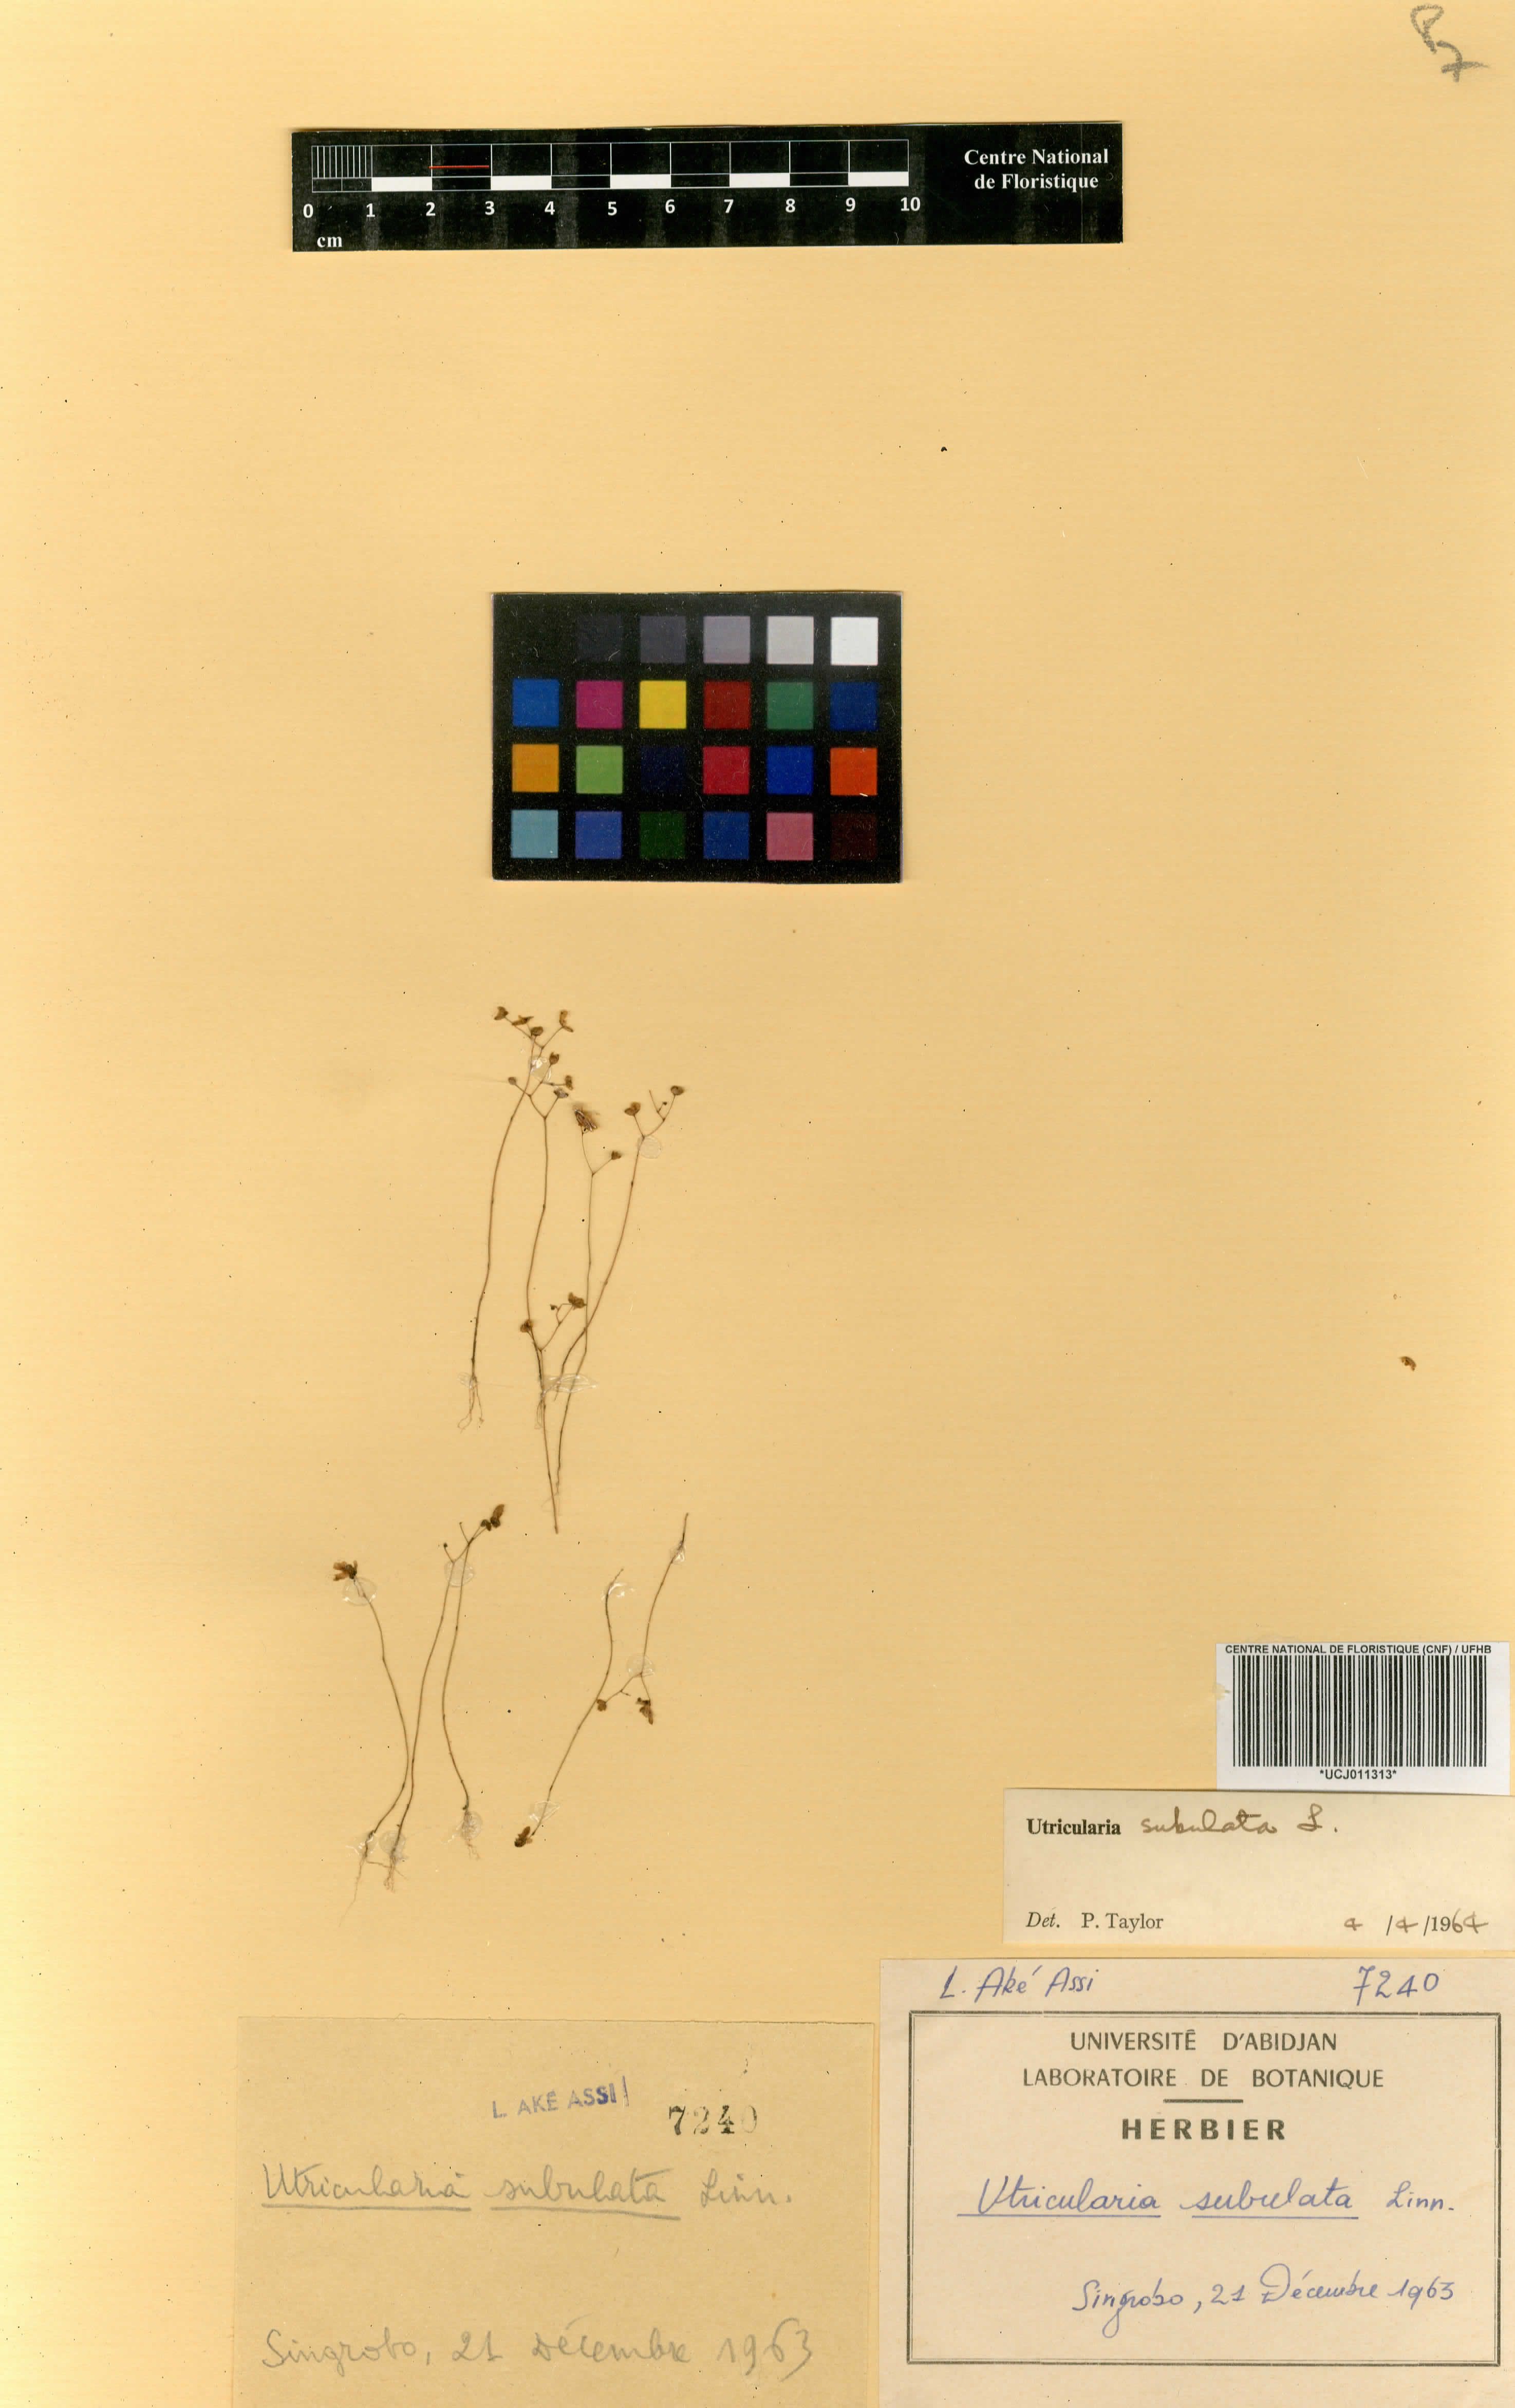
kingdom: Plantae
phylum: Tracheophyta
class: Magnoliopsida
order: Lamiales
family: Lentibulariaceae
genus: Utricularia
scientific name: Utricularia subulata
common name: Tiny bladderwort
